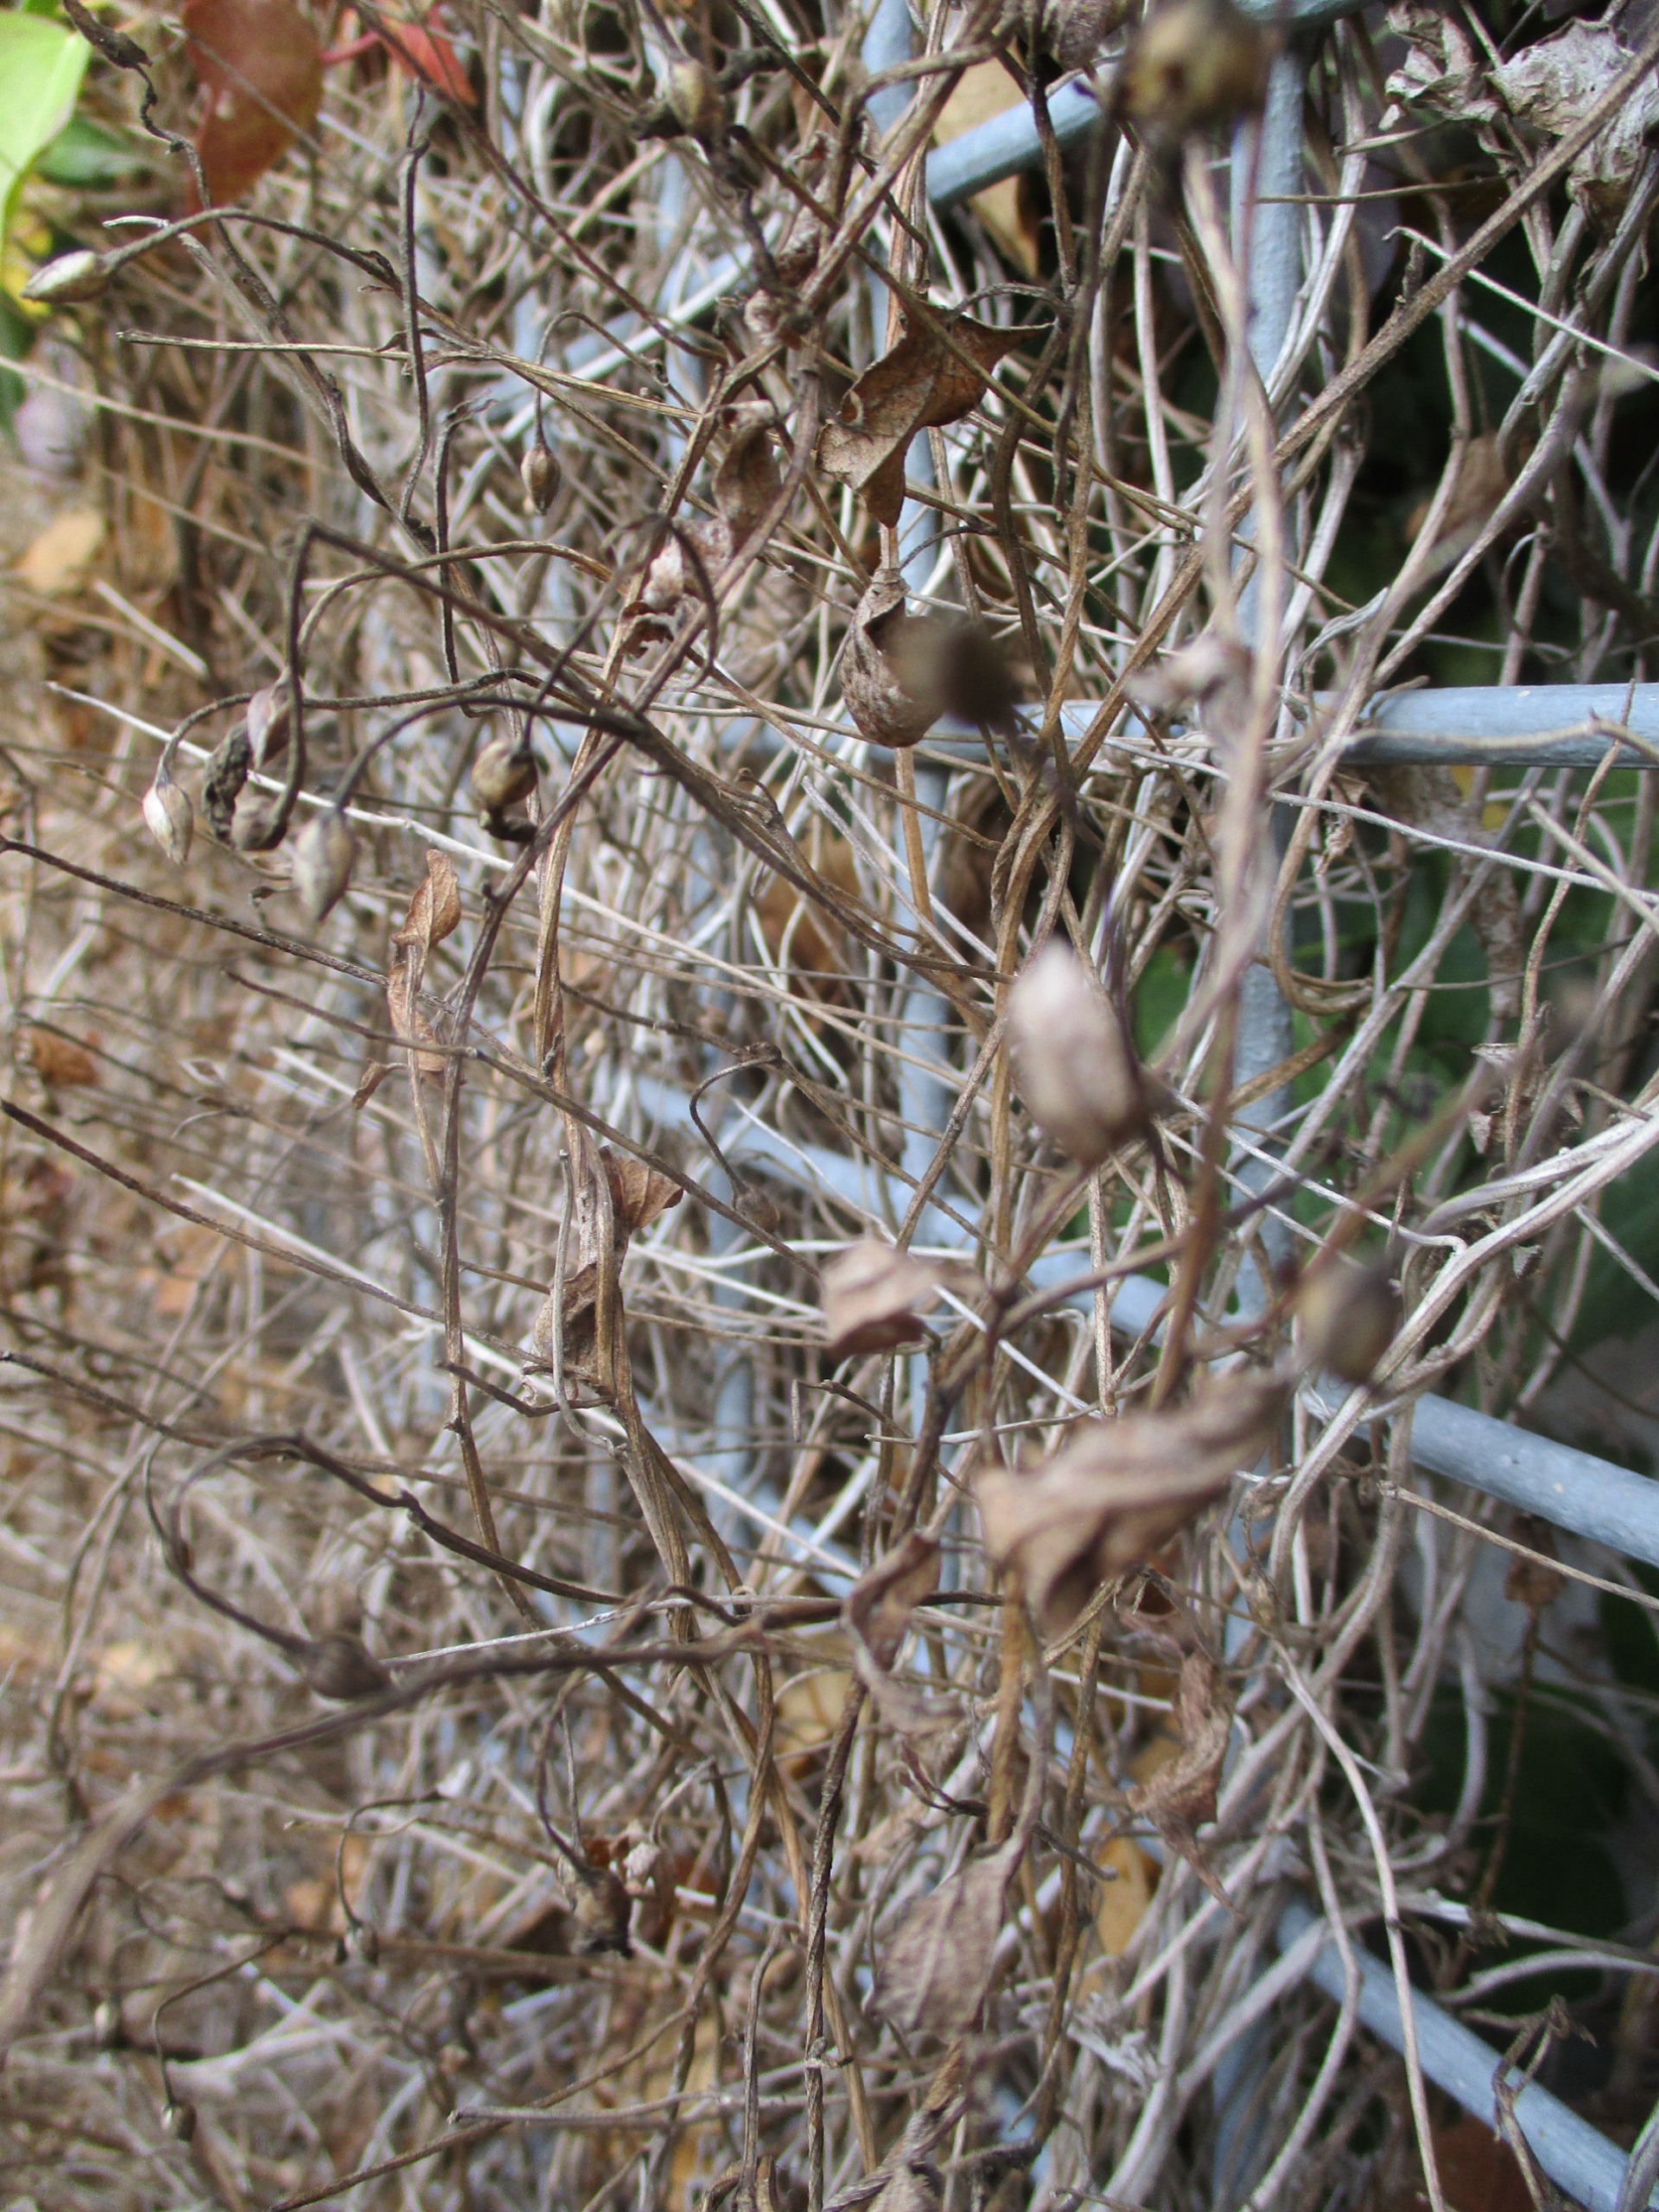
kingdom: Plantae
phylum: Tracheophyta
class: Magnoliopsida
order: Solanales
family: Convolvulaceae
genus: Convolvulus
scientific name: Convolvulus arvensis
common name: Ager-snerle
